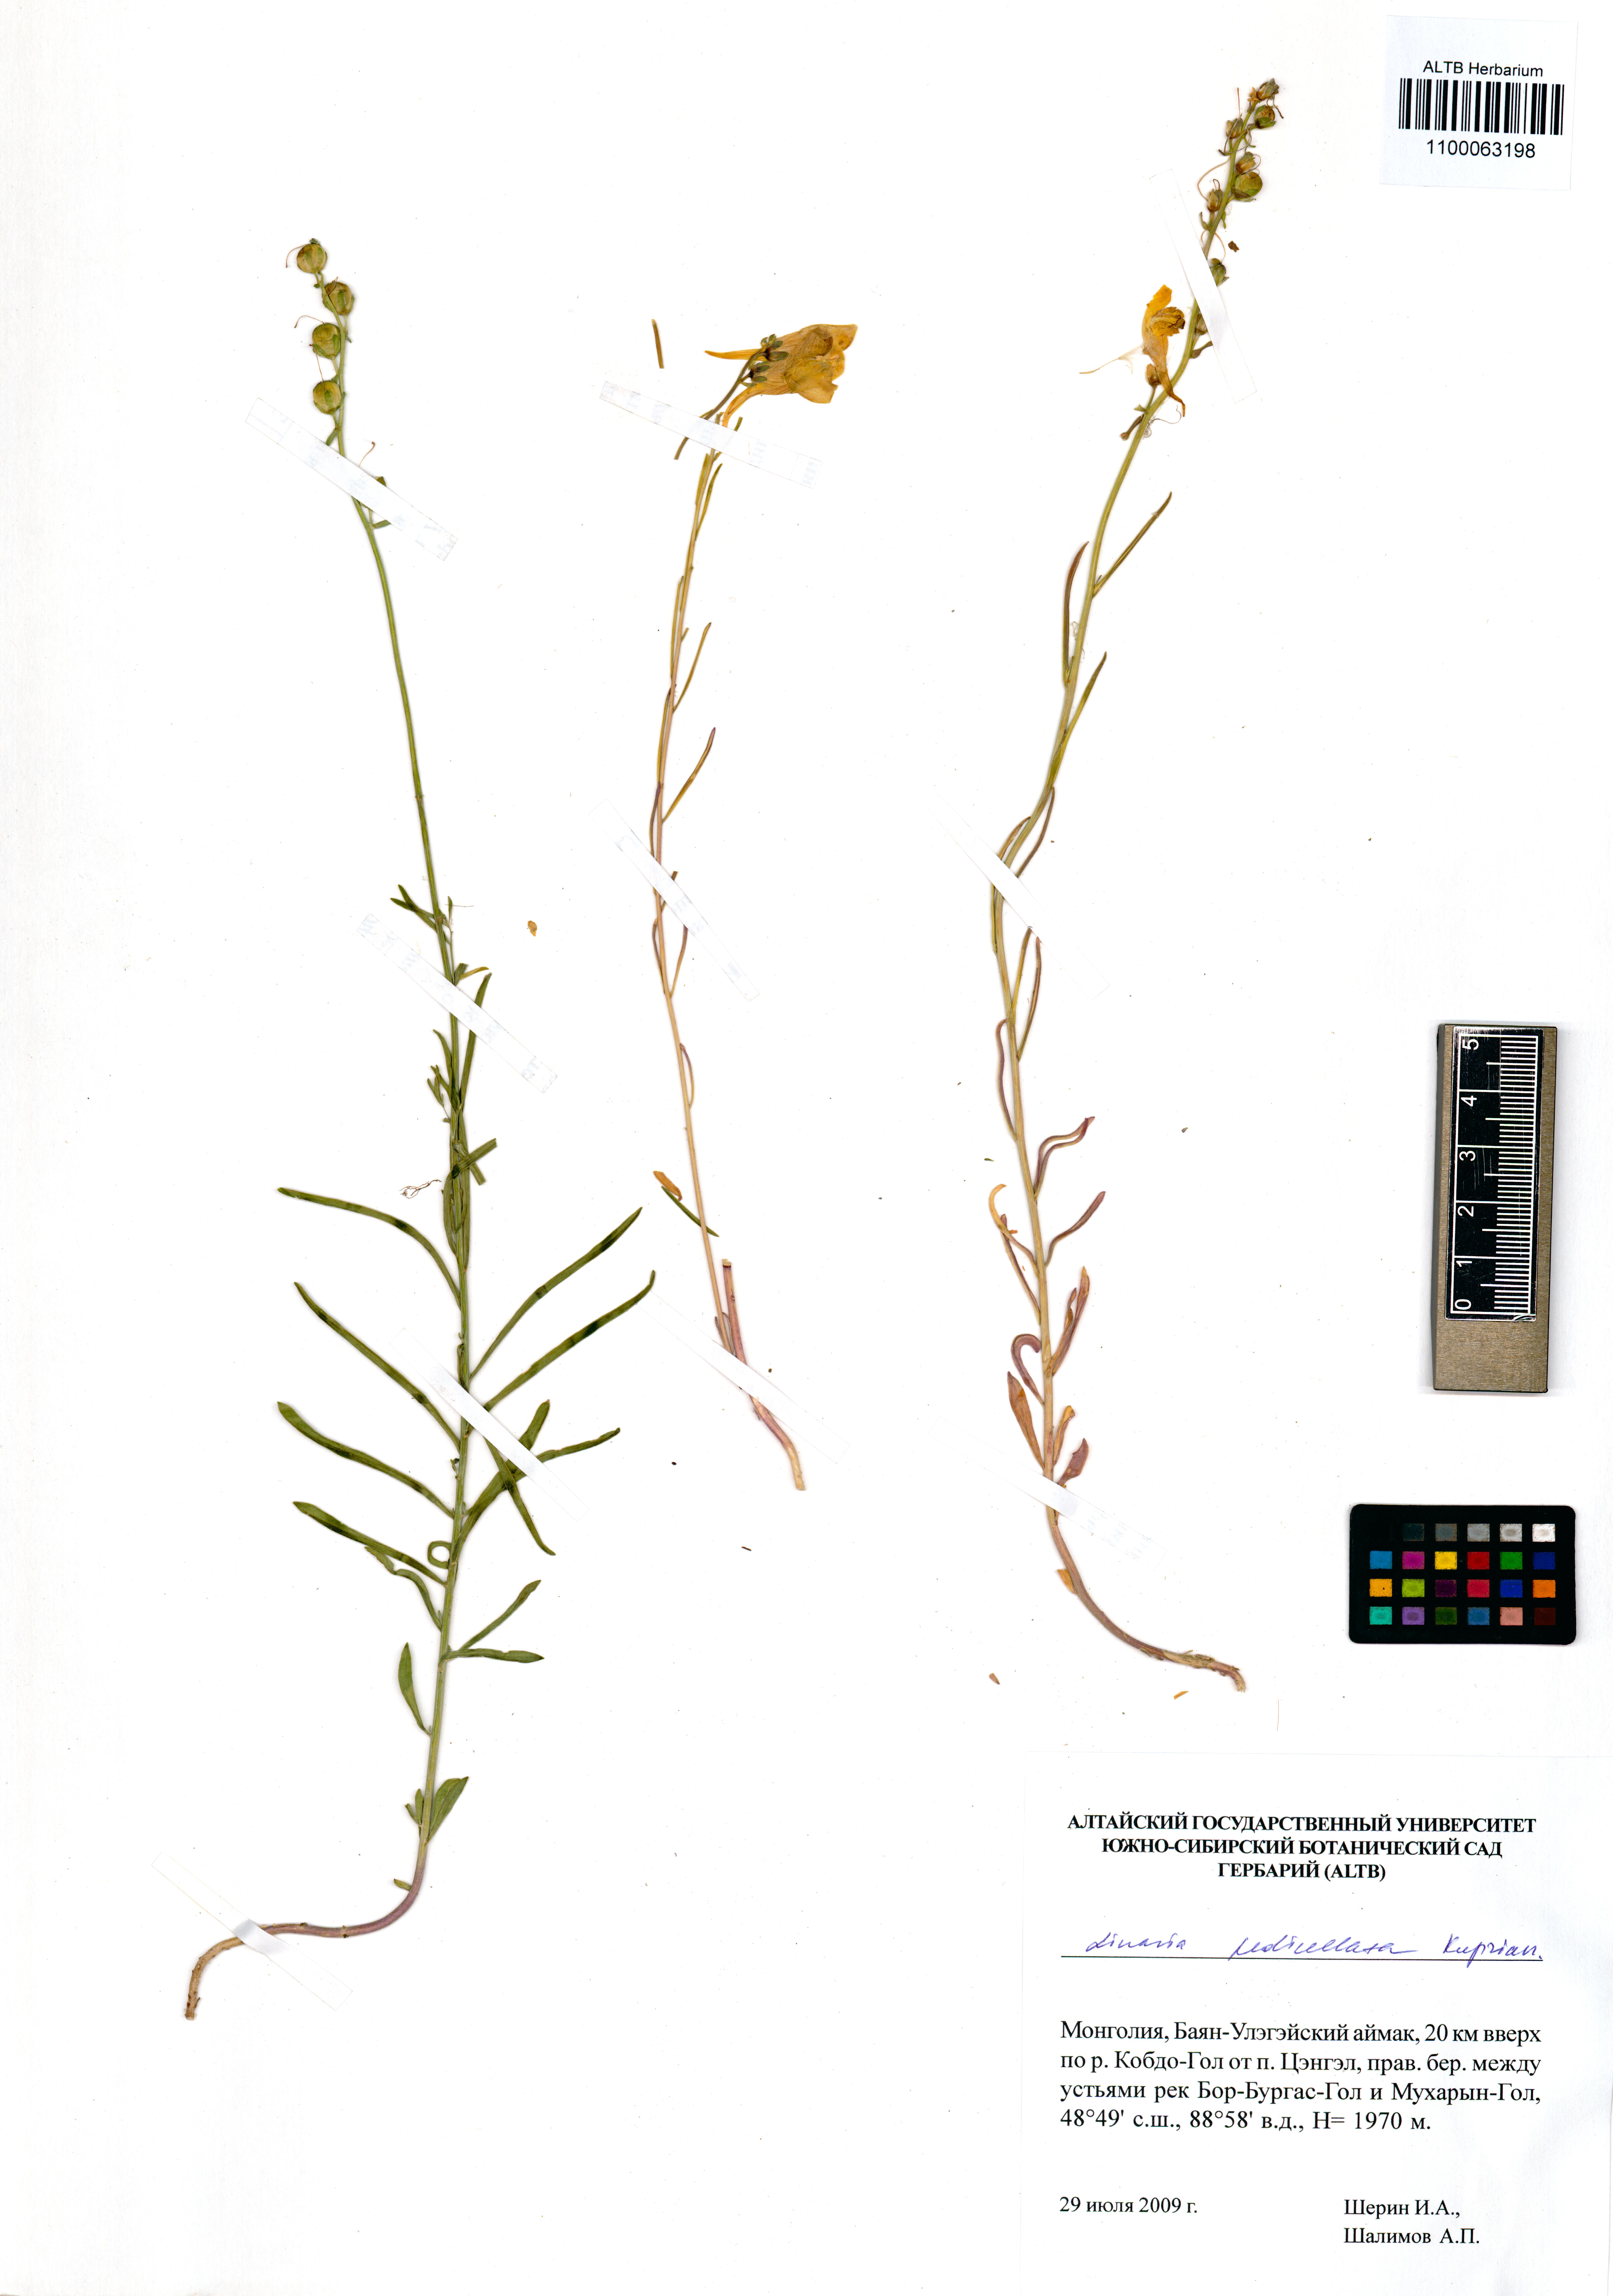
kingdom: Plantae
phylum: Tracheophyta
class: Magnoliopsida
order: Lamiales
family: Plantaginaceae
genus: Linaria
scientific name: Linaria pedicellata
